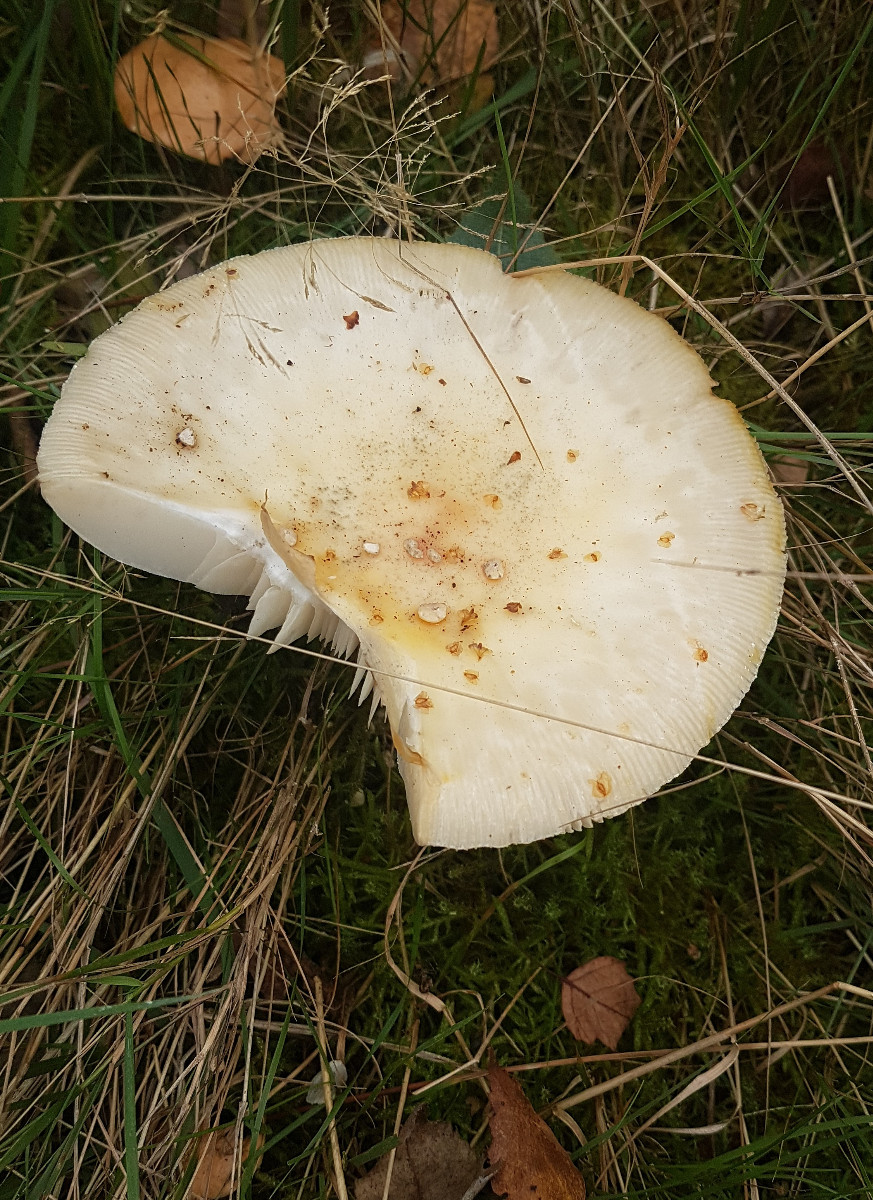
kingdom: Fungi
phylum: Basidiomycota
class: Agaricomycetes
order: Agaricales
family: Amanitaceae
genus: Amanita
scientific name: Amanita porphyria
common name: porfyr-fluesvamp
